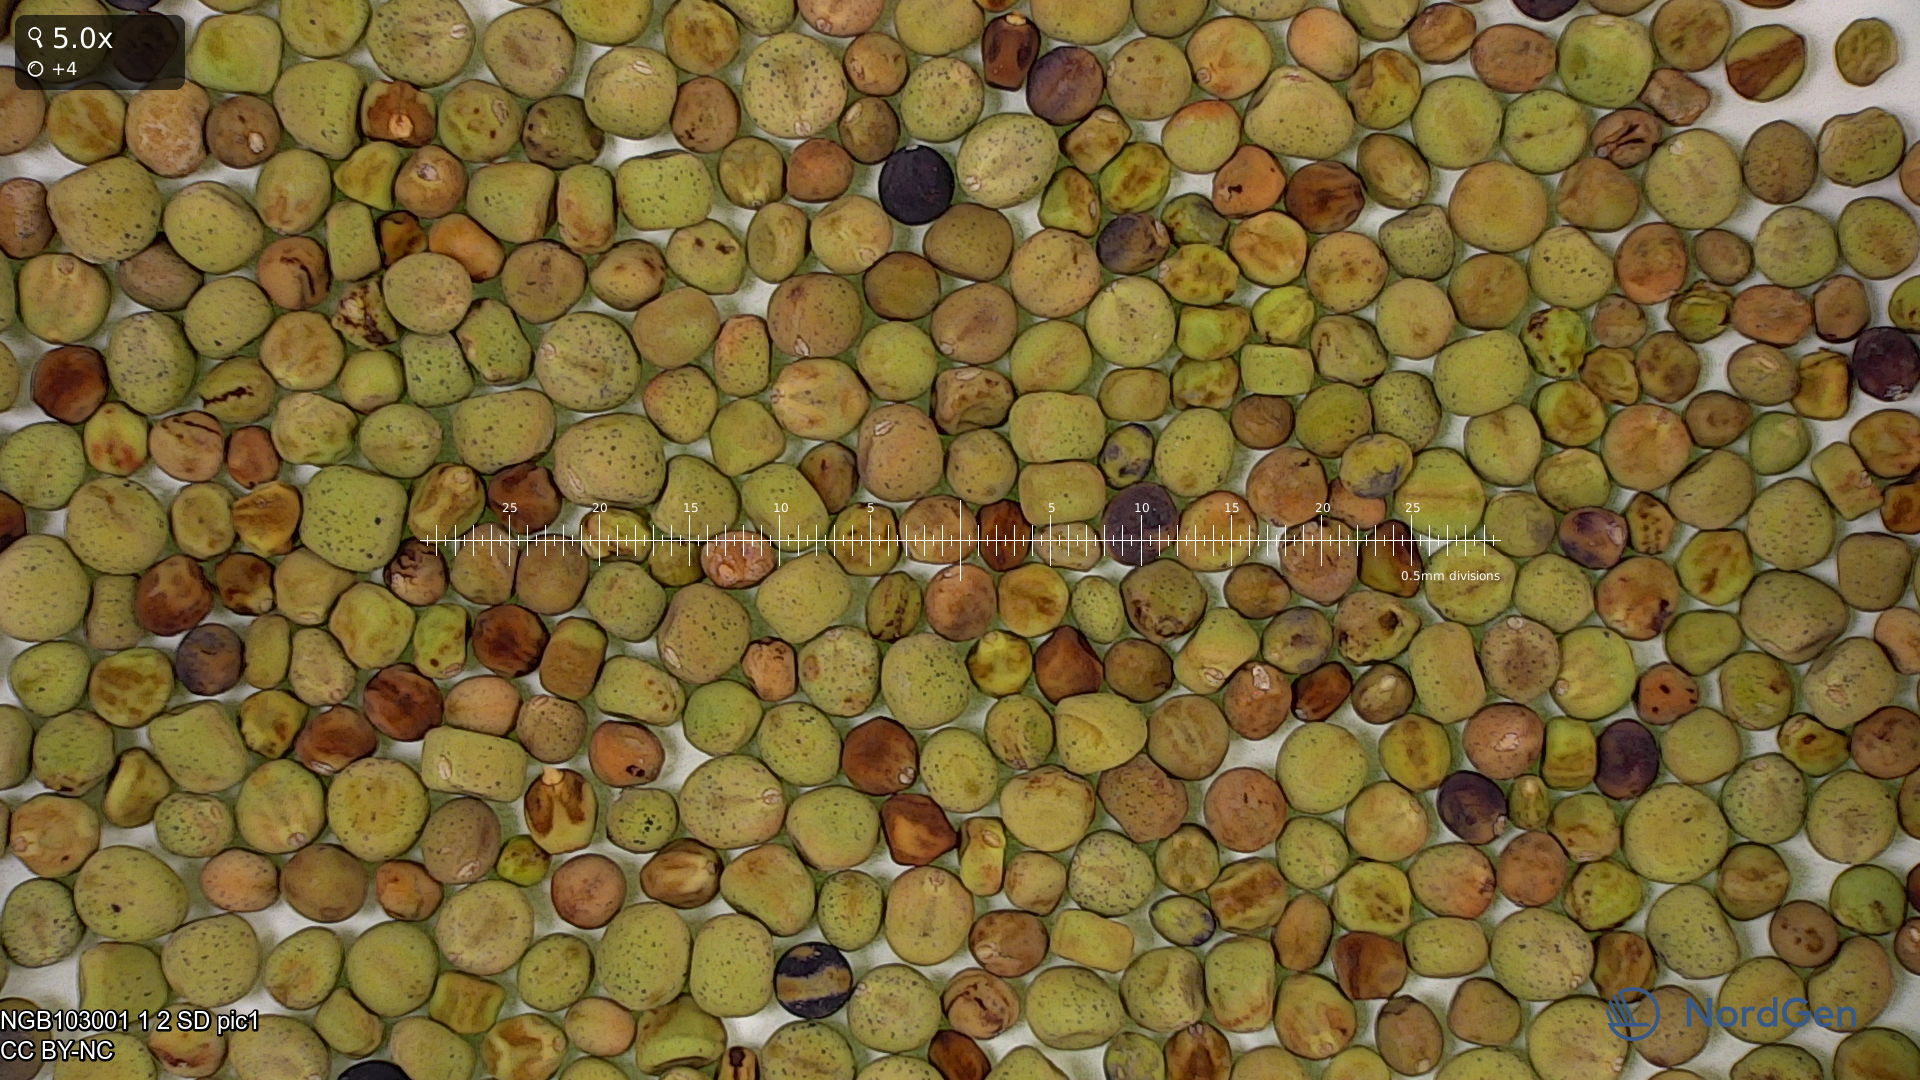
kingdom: Plantae
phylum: Tracheophyta
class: Magnoliopsida
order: Fabales
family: Fabaceae
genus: Lathyrus
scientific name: Lathyrus oleraceus
